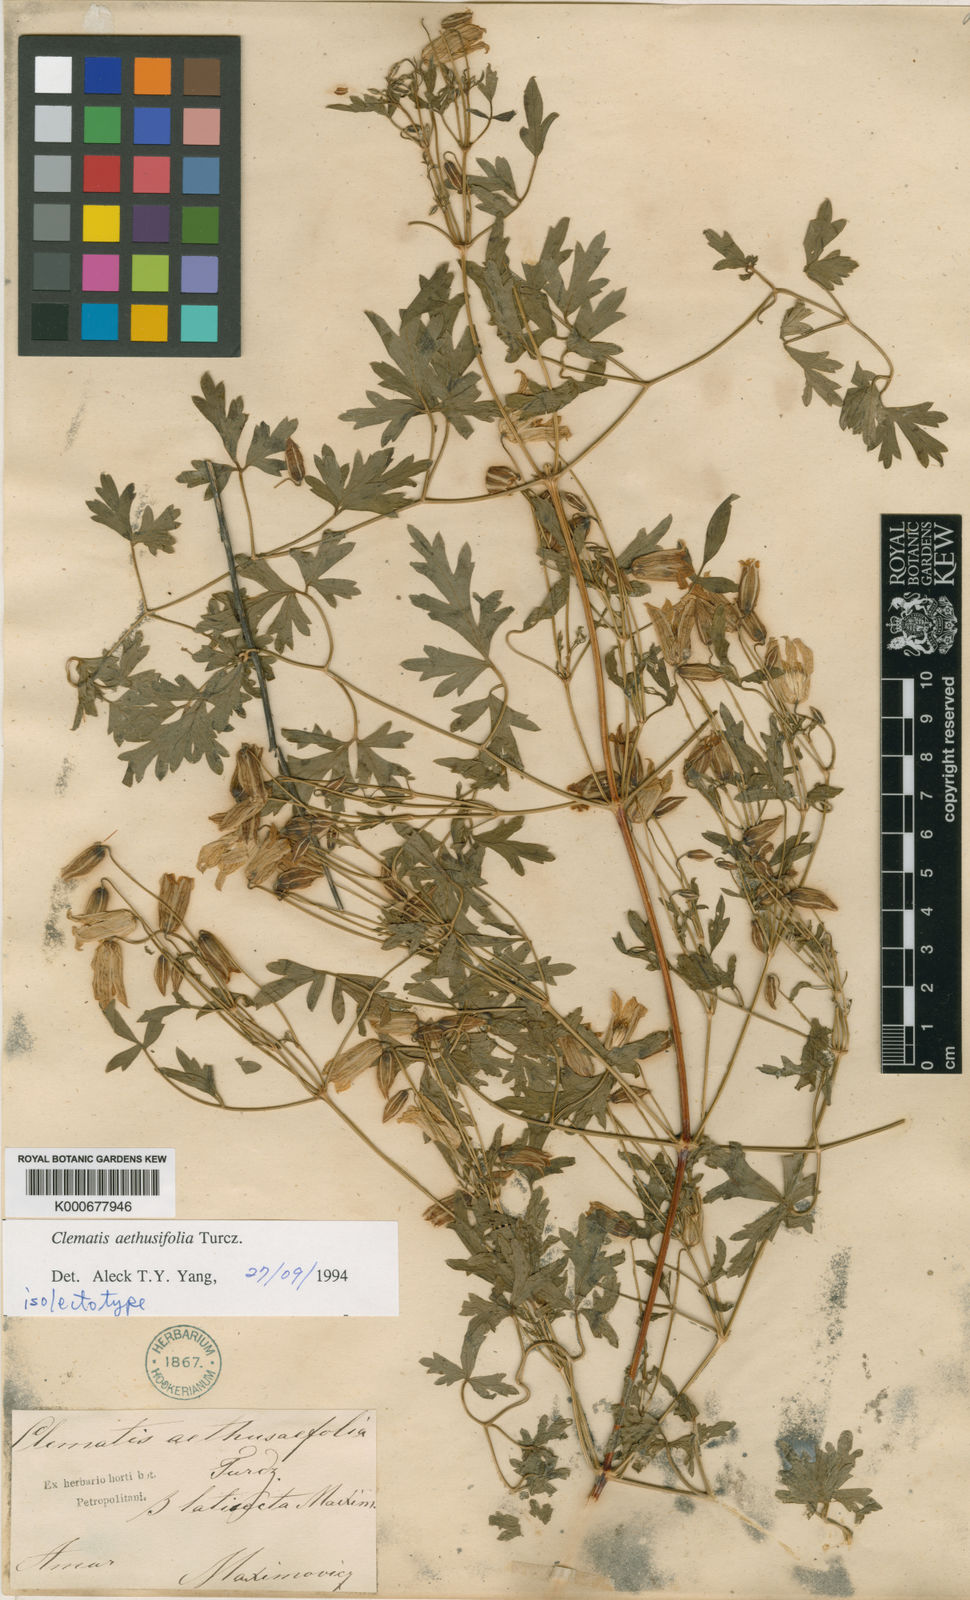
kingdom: Plantae
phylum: Tracheophyta
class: Magnoliopsida
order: Ranunculales
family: Ranunculaceae
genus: Clematis
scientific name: Clematis aethusifolia
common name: Parsley-leaf clematis
